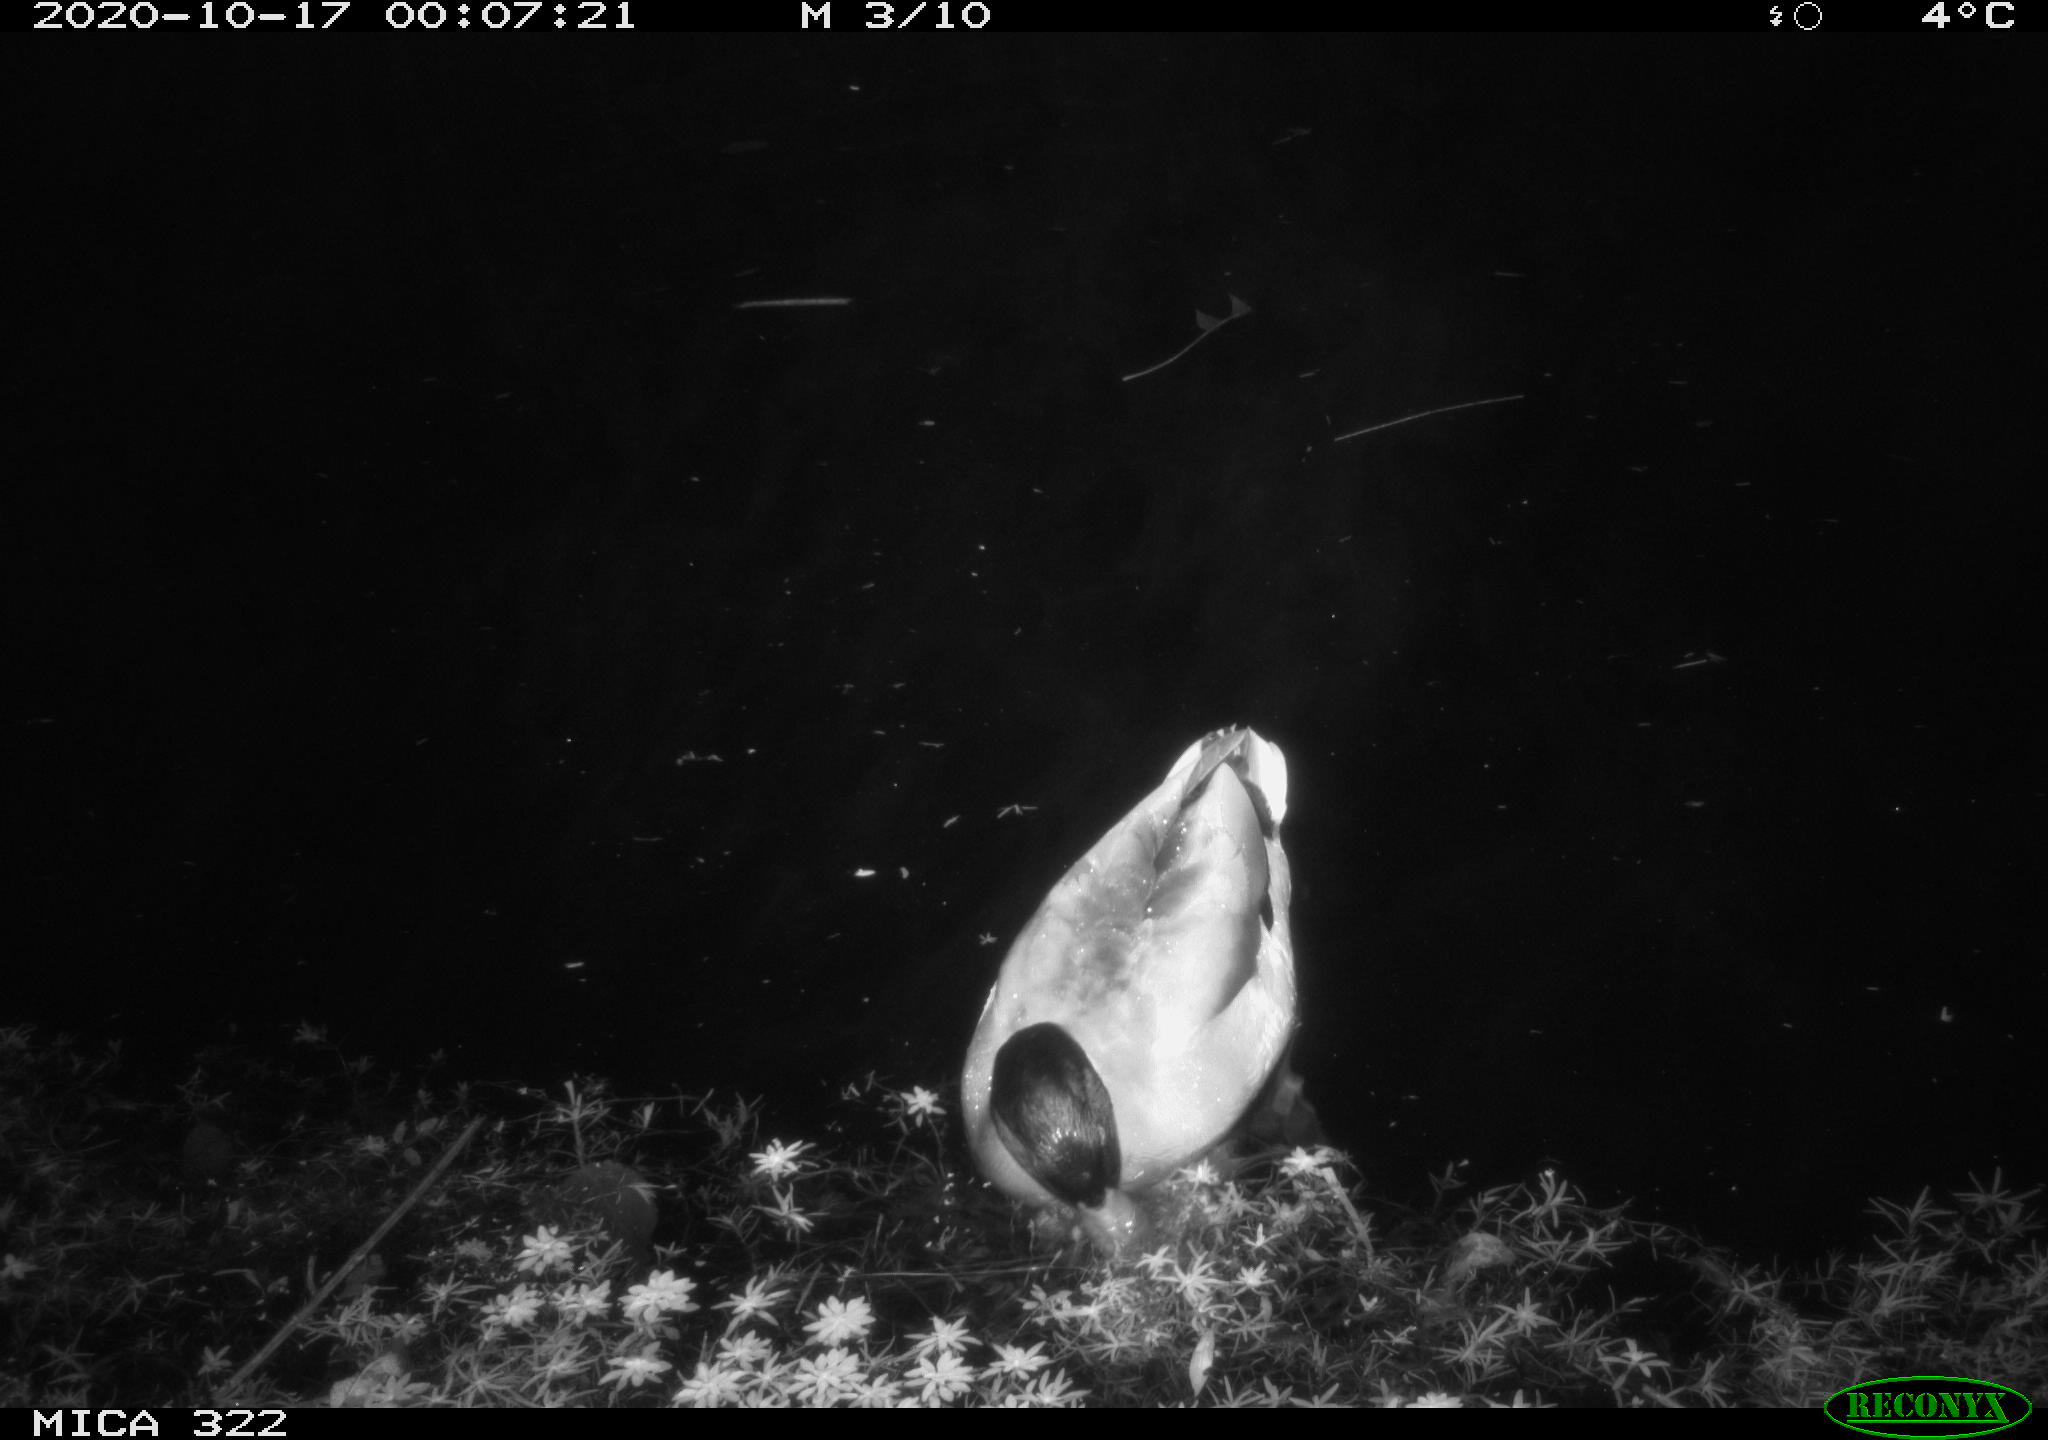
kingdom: Animalia
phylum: Chordata
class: Aves
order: Anseriformes
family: Anatidae
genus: Anas
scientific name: Anas platyrhynchos
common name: Mallard
